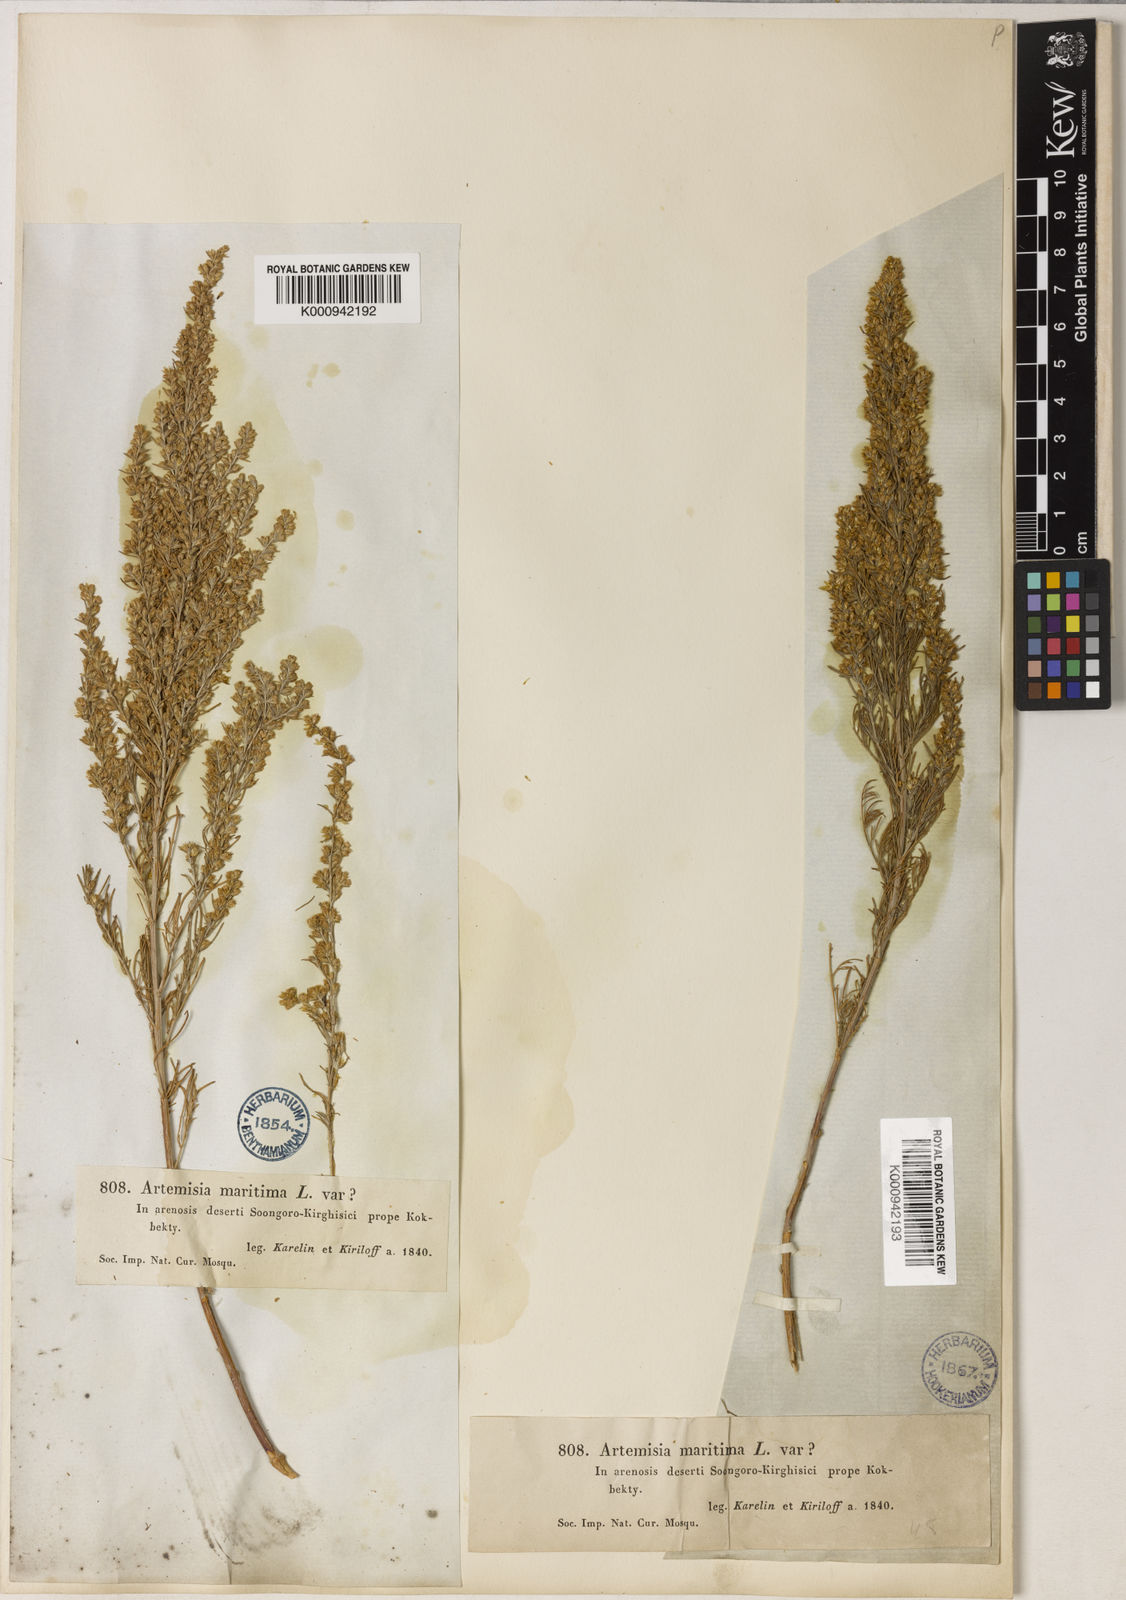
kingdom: Plantae
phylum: Tracheophyta
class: Magnoliopsida
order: Asterales
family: Asteraceae
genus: Artemisia
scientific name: Artemisia santonicum
